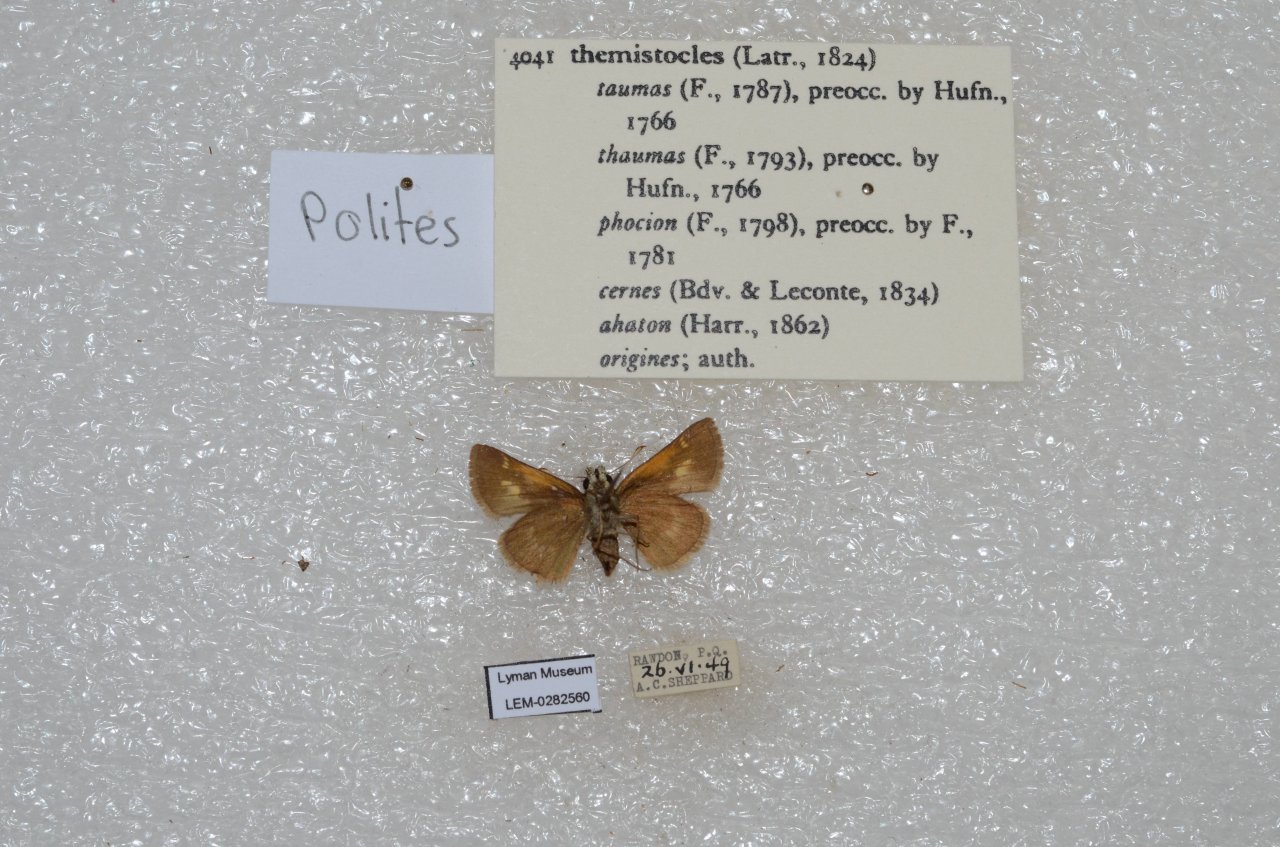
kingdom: Animalia
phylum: Arthropoda
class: Insecta
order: Lepidoptera
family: Hesperiidae
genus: Polites
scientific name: Polites themistocles
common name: Tawny-edged Skipper
